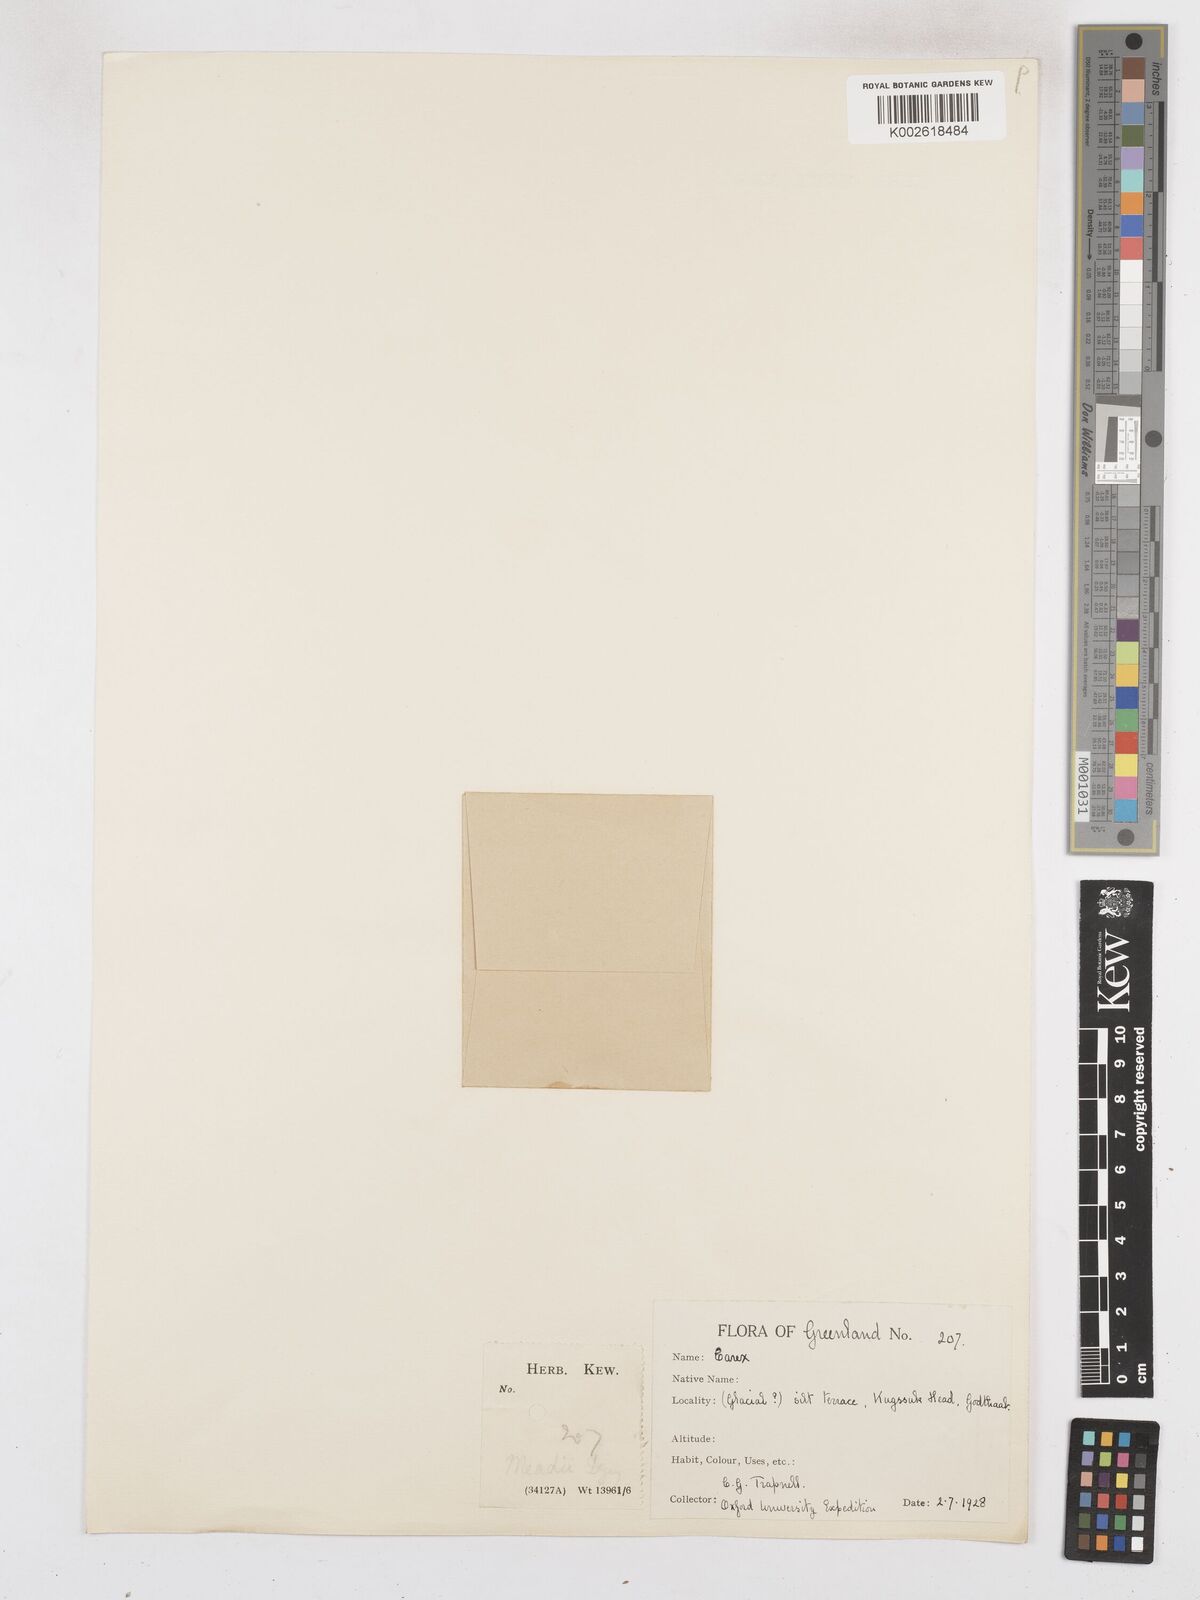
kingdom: Plantae
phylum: Tracheophyta
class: Liliopsida
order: Poales
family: Cyperaceae
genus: Carex
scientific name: Carex meadii
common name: Mead's sedge
